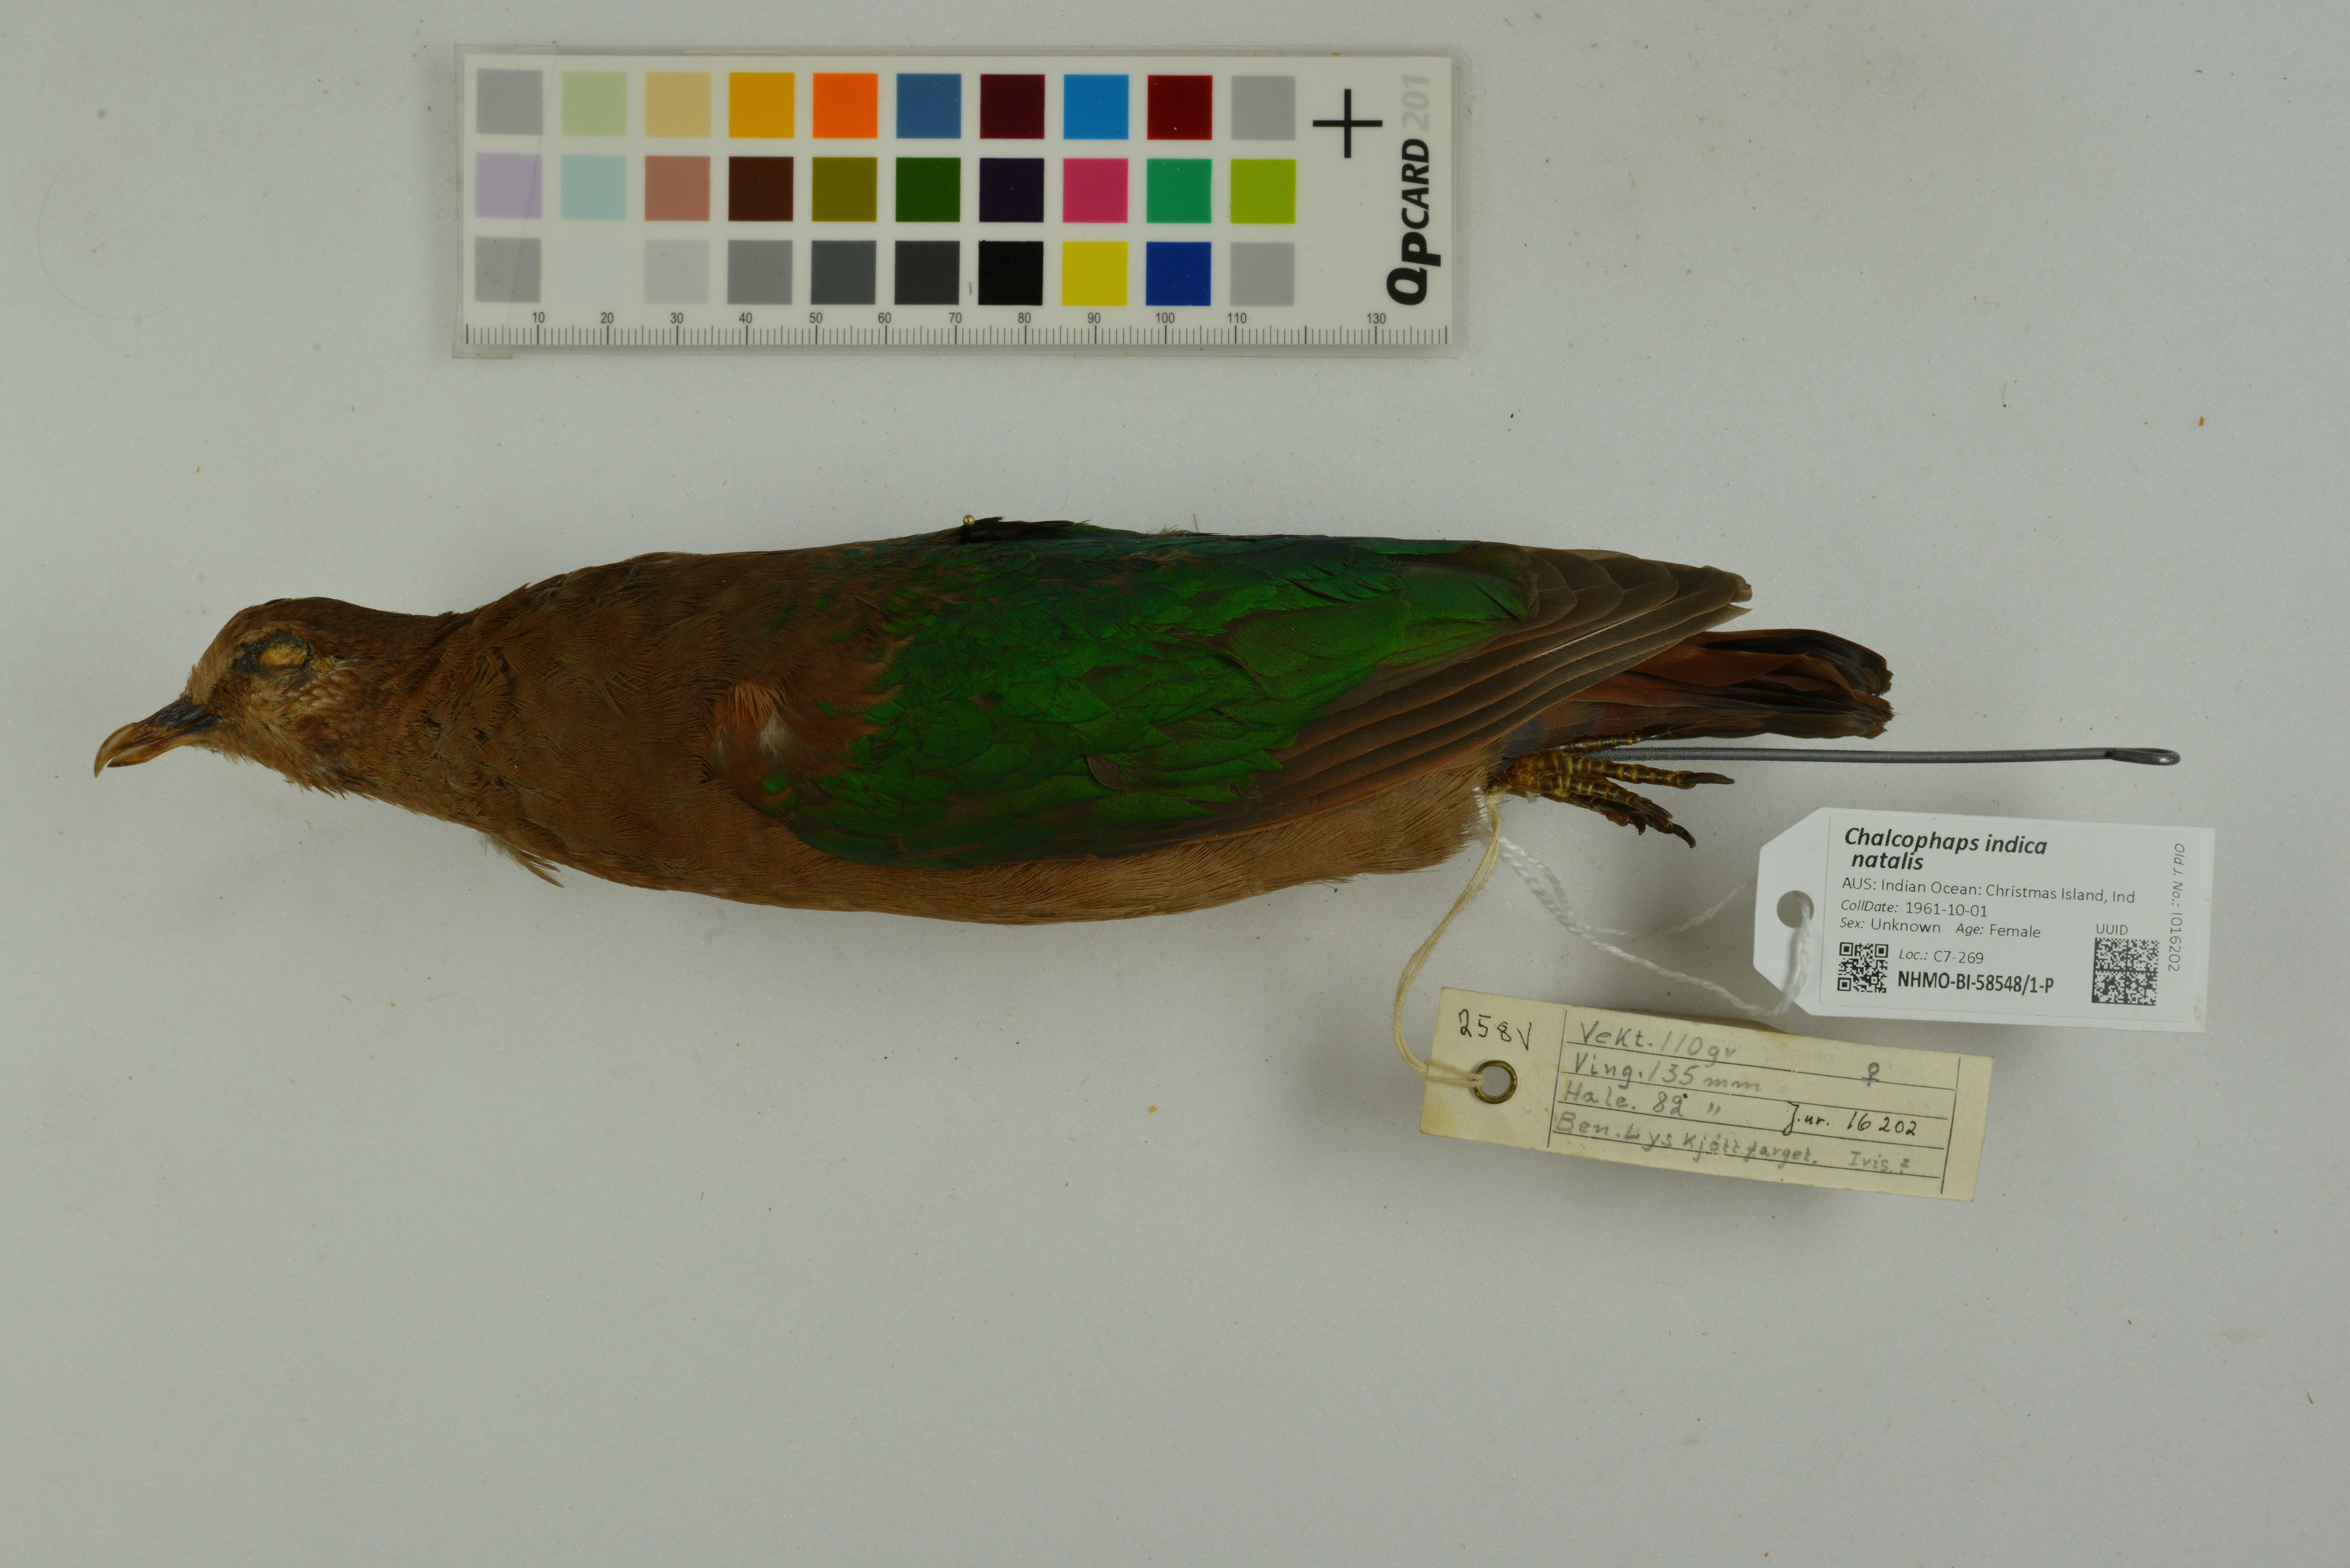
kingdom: Animalia
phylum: Chordata
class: Aves
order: Columbiformes
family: Columbidae
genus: Chalcophaps
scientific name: Chalcophaps indica
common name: Common emerald dove
